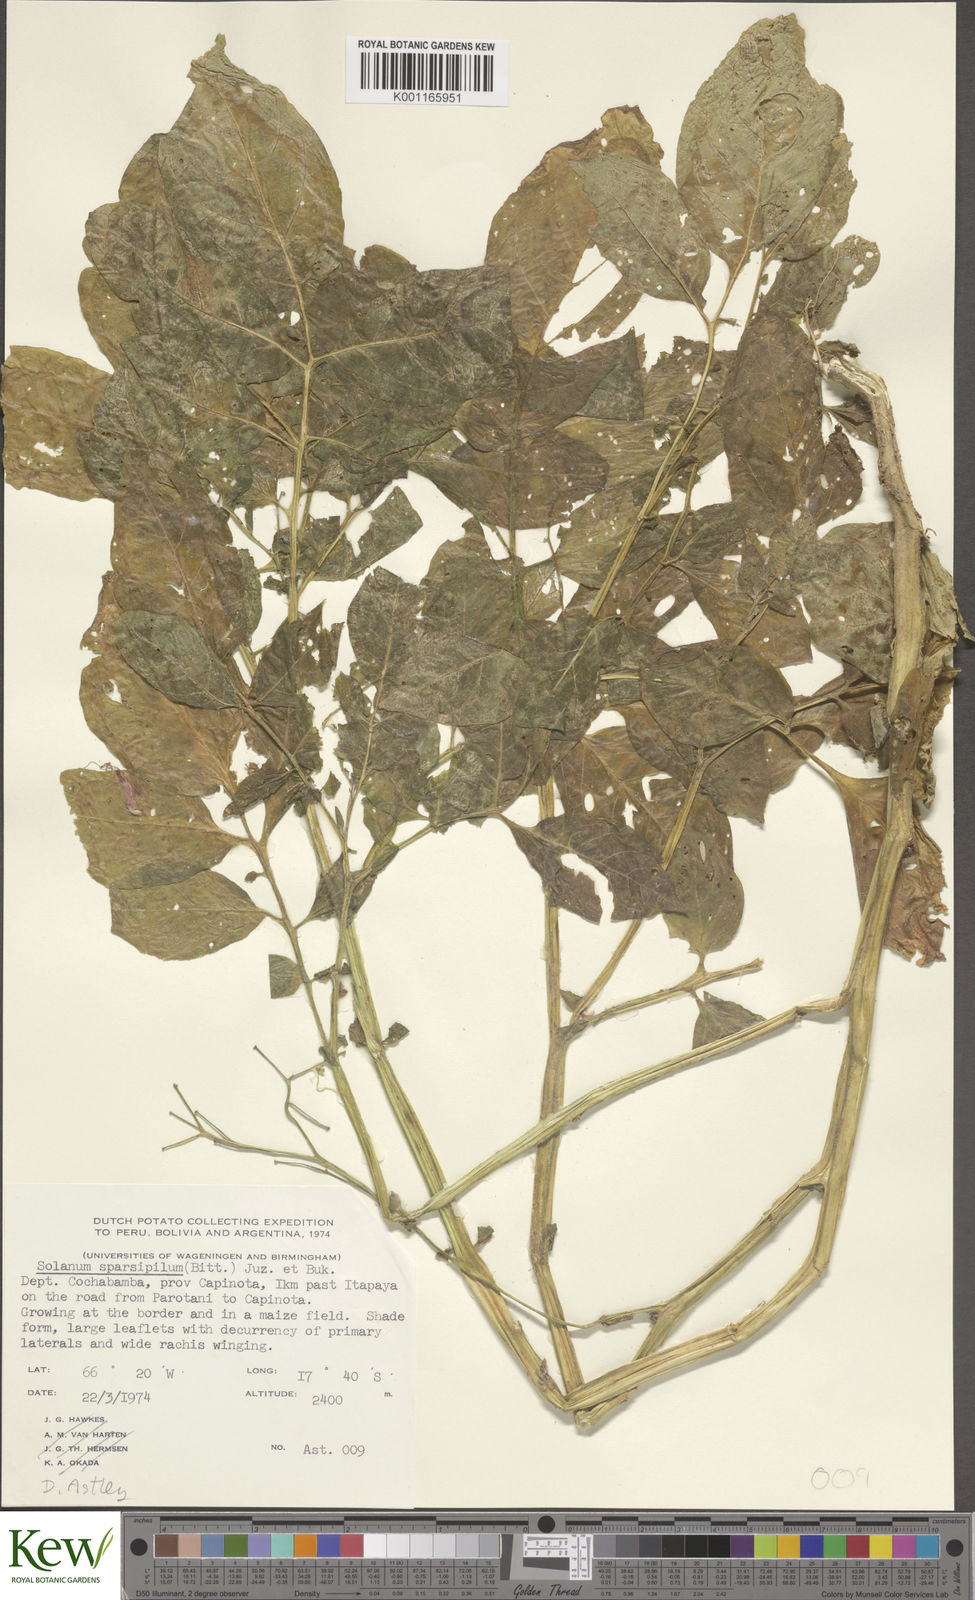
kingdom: Plantae
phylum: Tracheophyta
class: Magnoliopsida
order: Solanales
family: Solanaceae
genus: Solanum
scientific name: Solanum brevicaule
